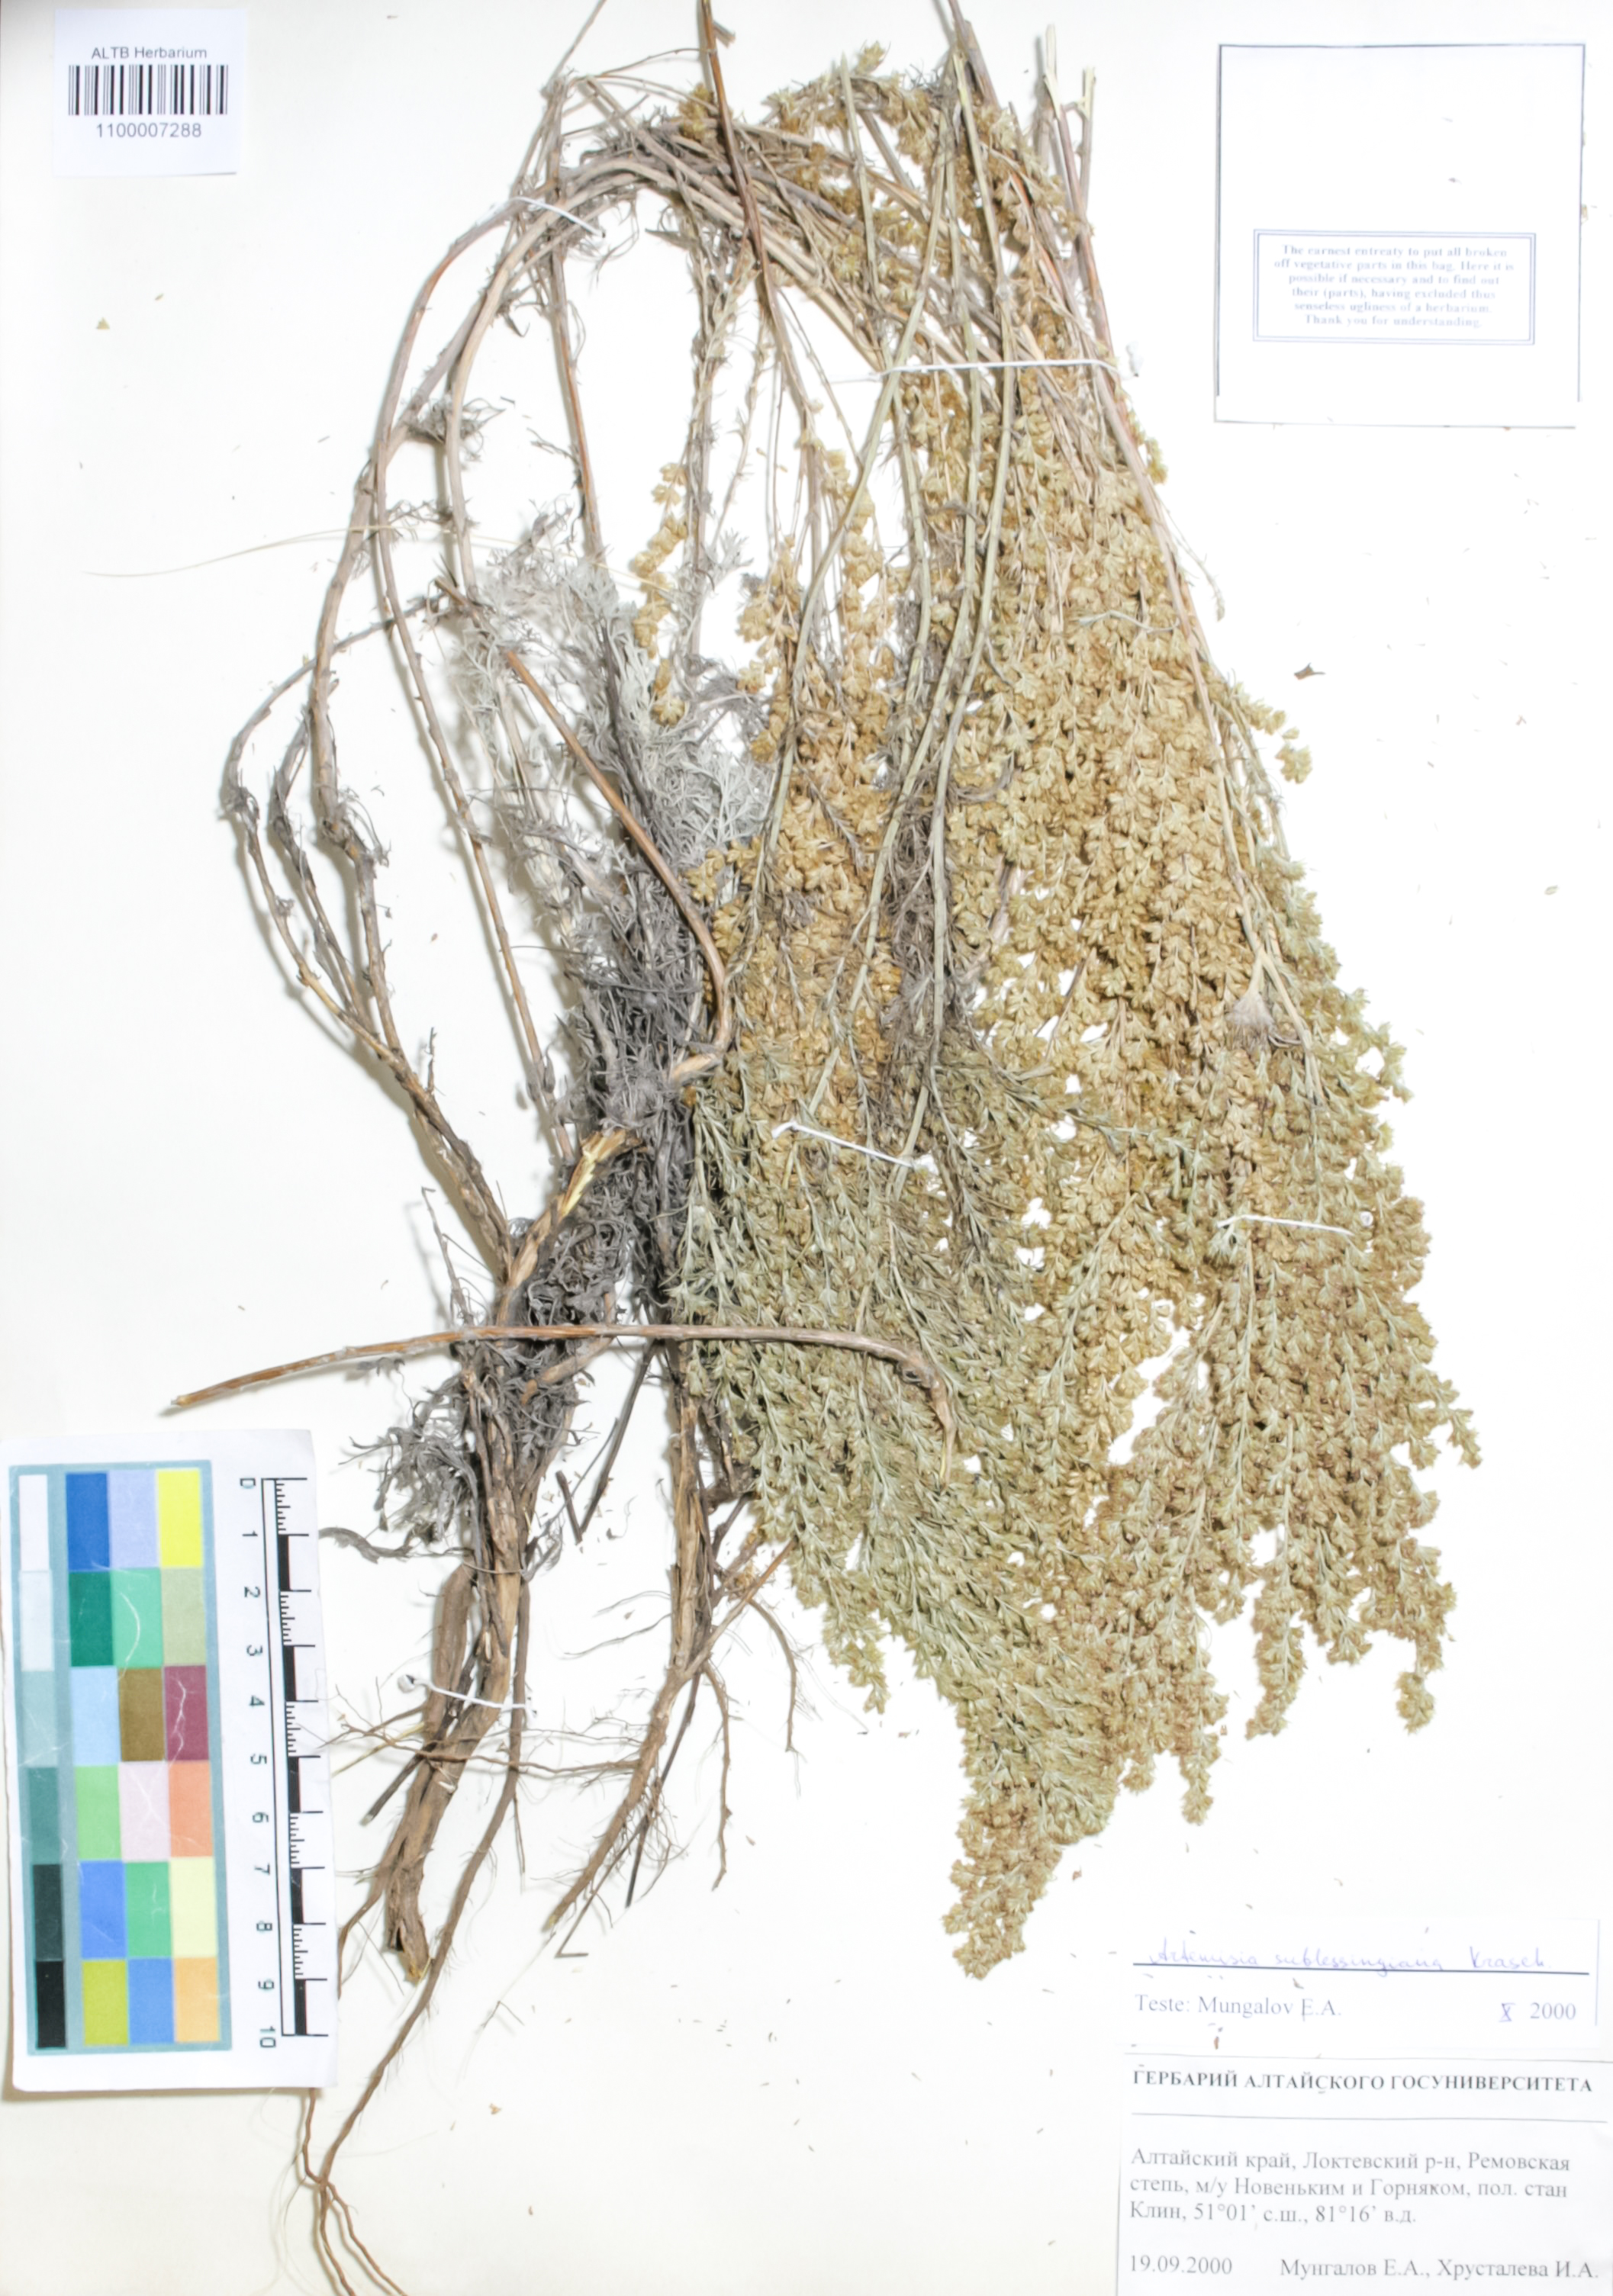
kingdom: Plantae
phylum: Tracheophyta
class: Magnoliopsida
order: Asterales
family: Asteraceae
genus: Artemisia
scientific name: Artemisia sublessingiana
